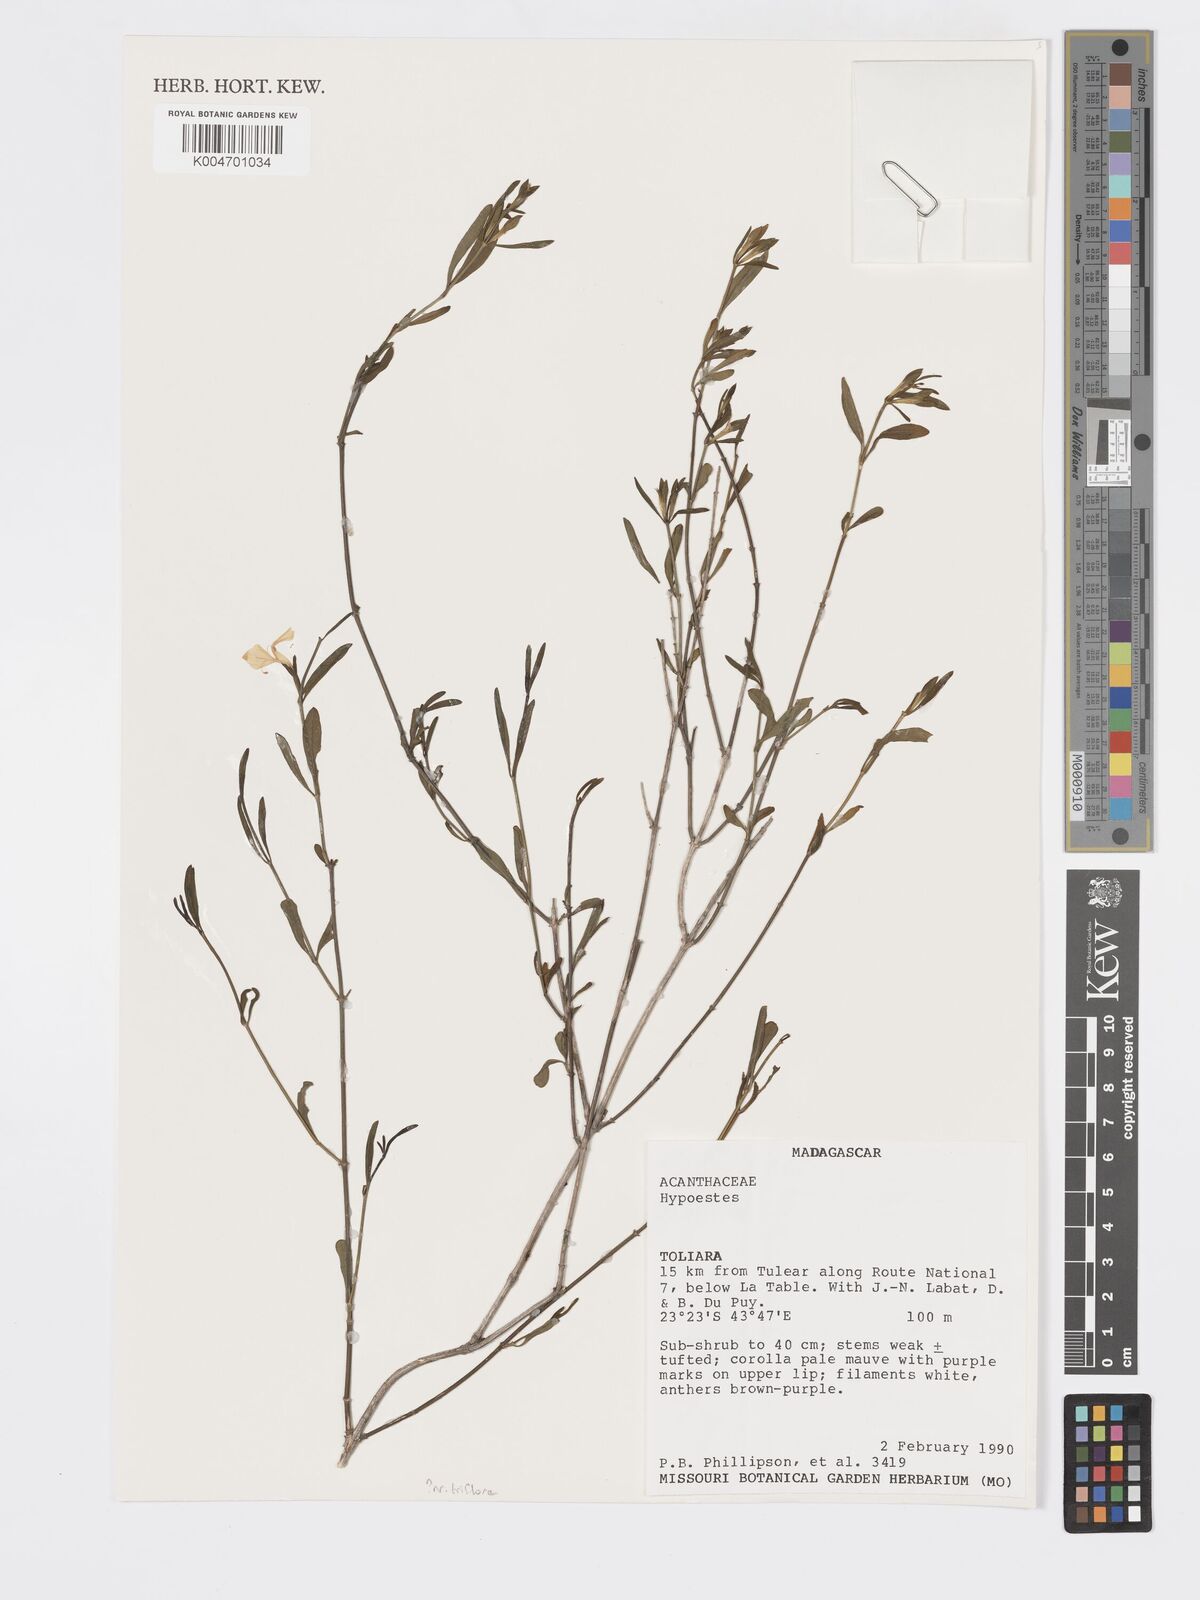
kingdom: Plantae
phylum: Tracheophyta
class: Magnoliopsida
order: Lamiales
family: Acanthaceae
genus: Hypoestes
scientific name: Hypoestes
